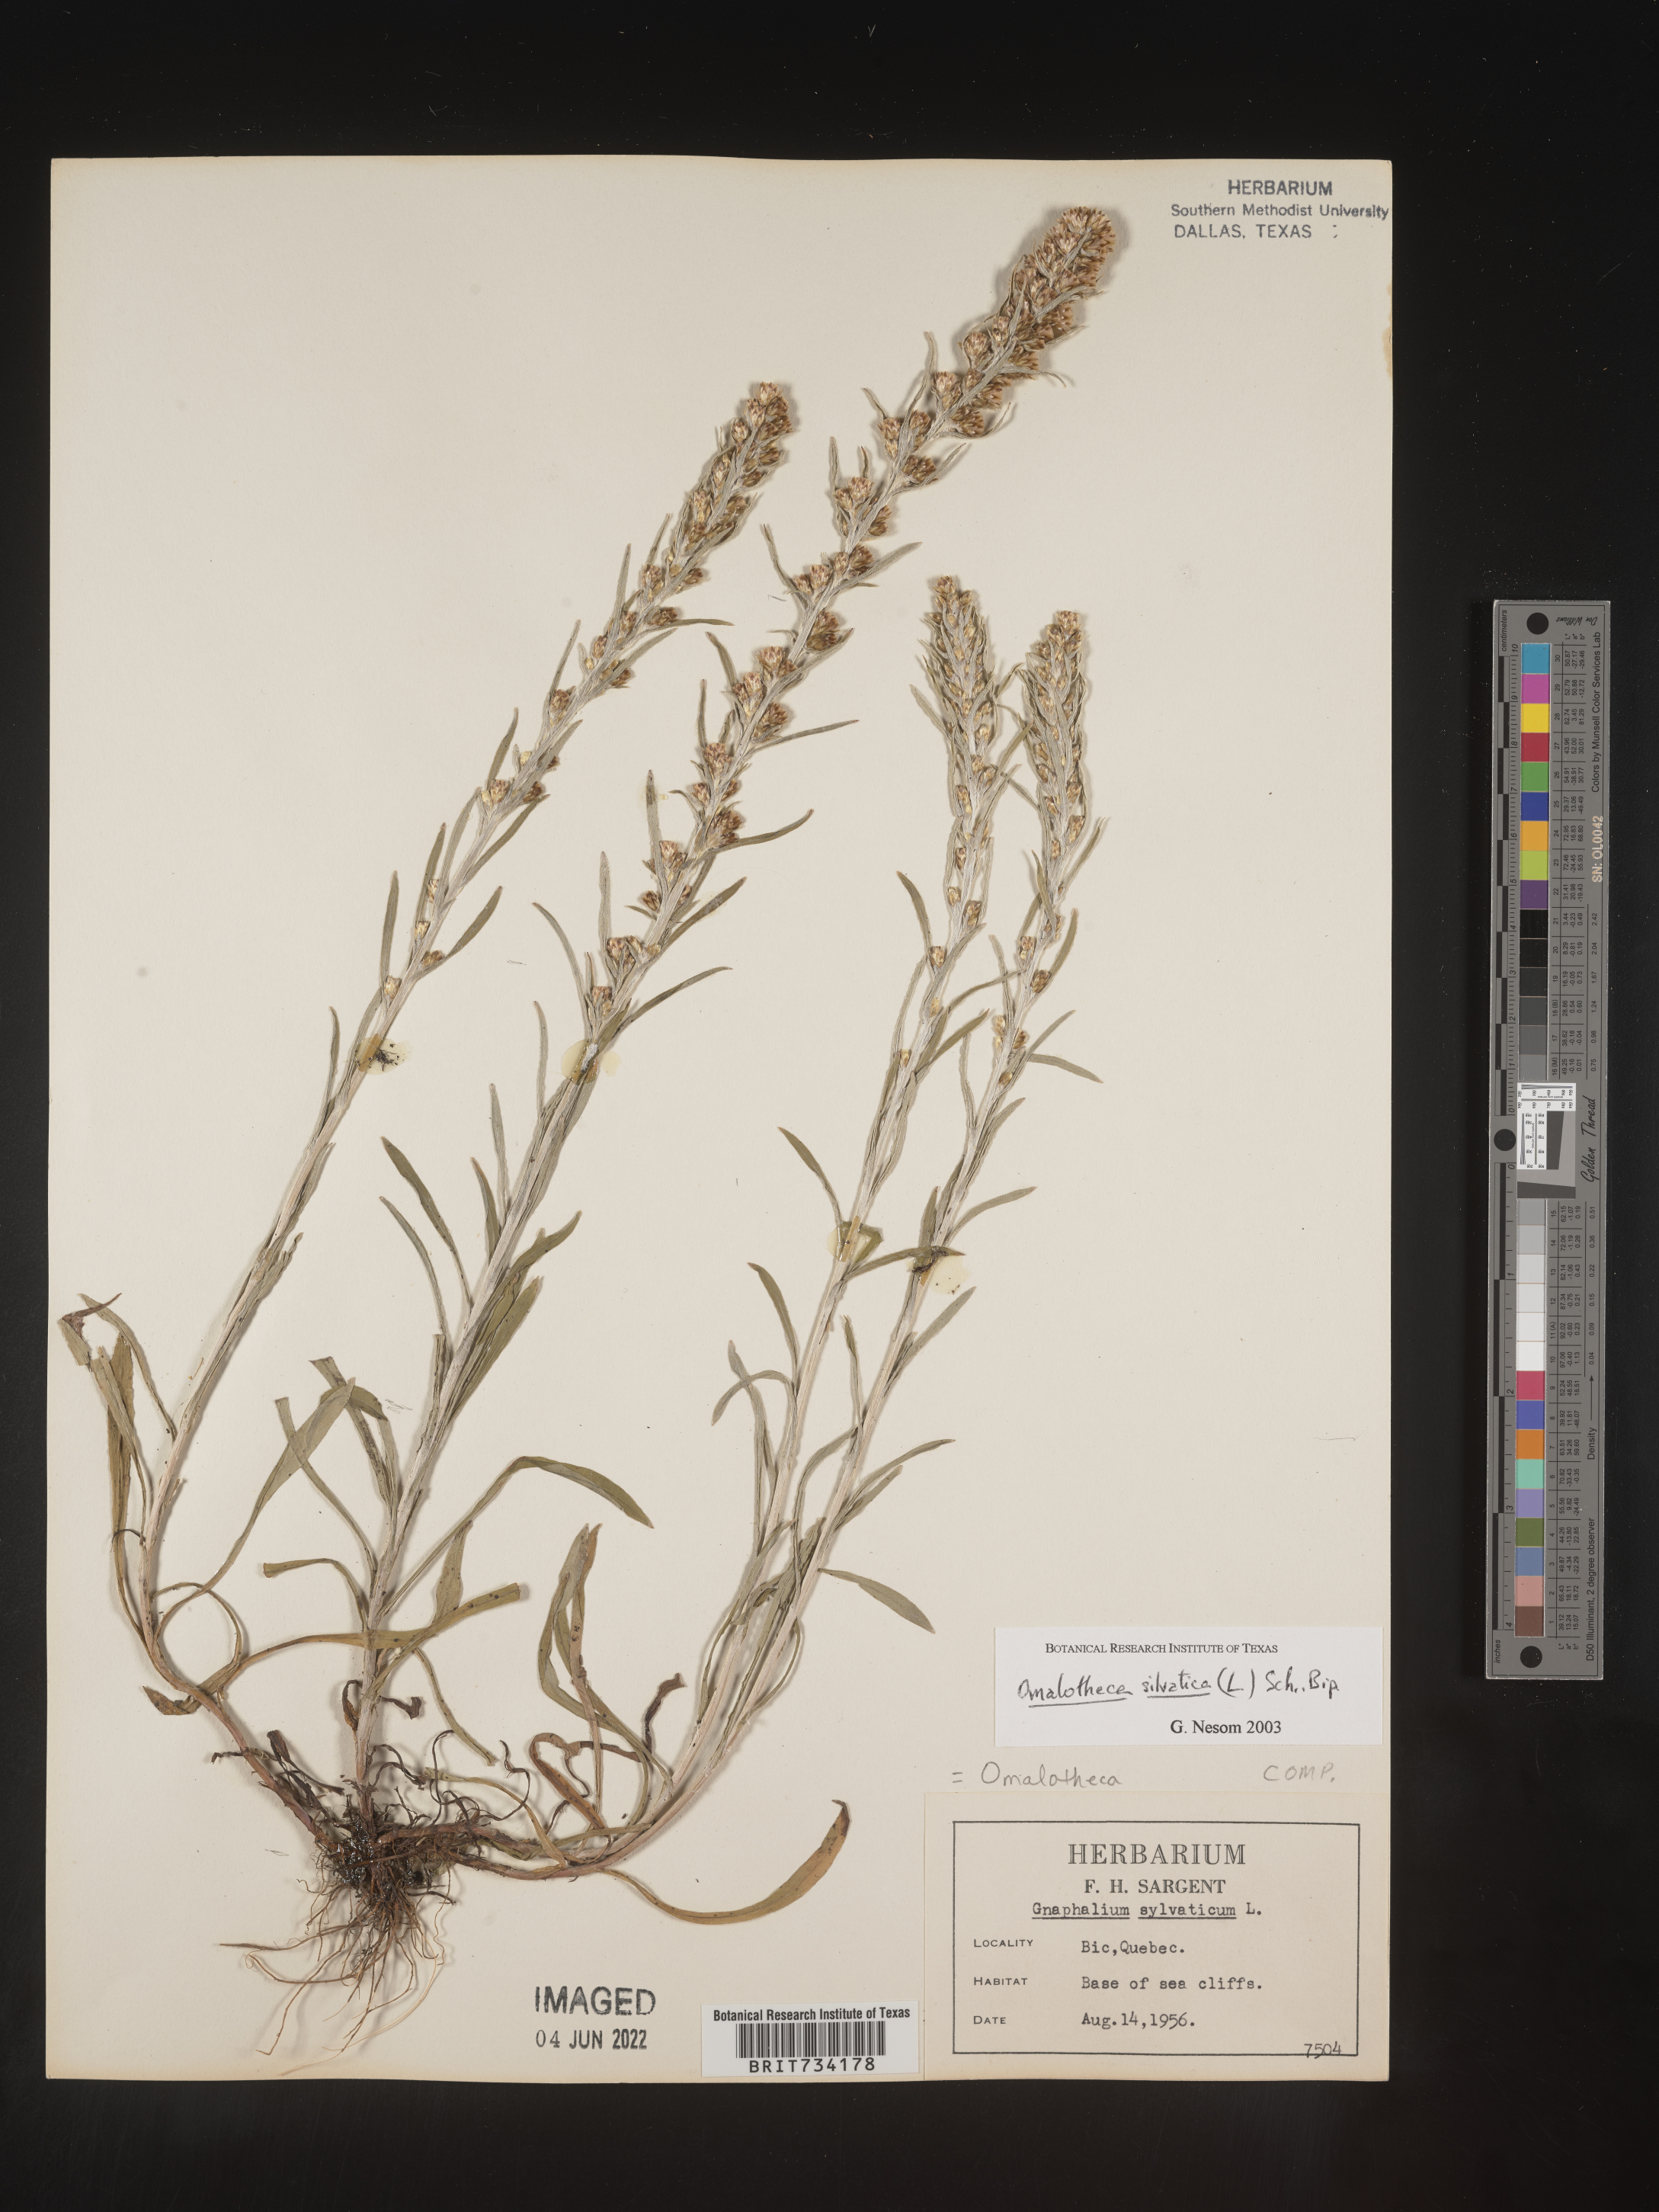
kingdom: Plantae
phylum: Tracheophyta
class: Magnoliopsida
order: Asterales
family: Asteraceae
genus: Omalotheca
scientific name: Omalotheca
